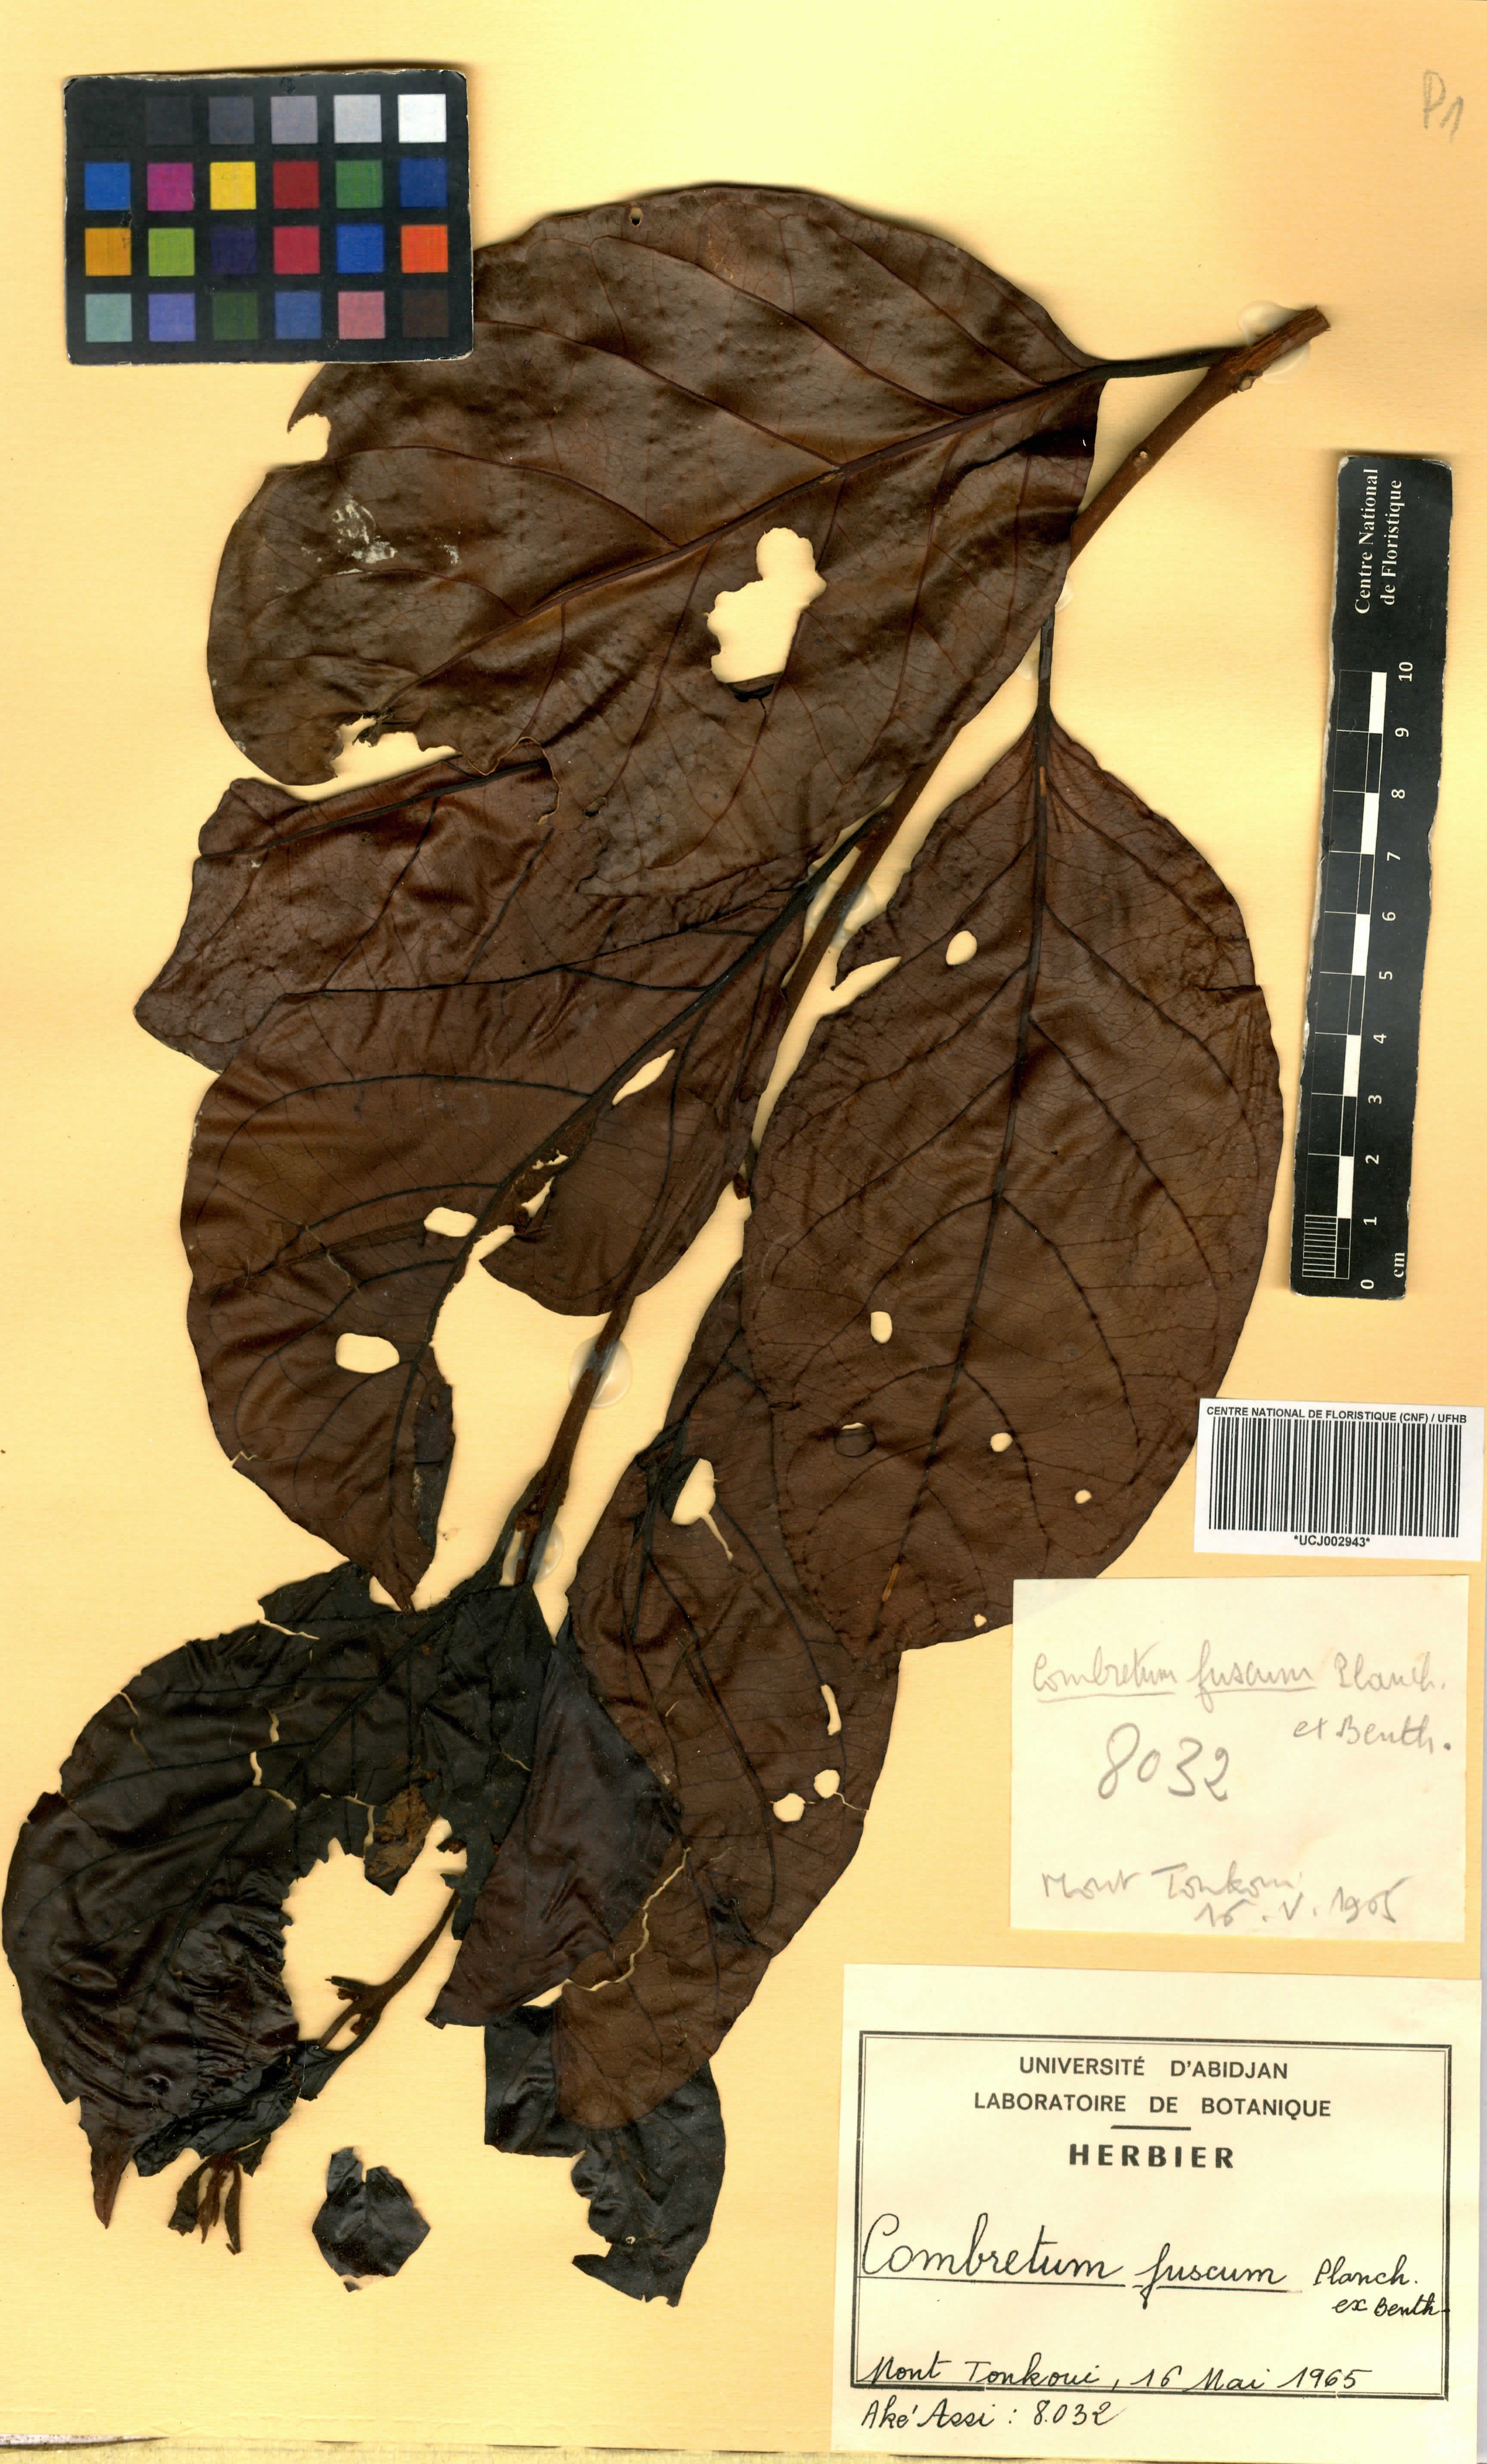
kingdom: Plantae
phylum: Tracheophyta
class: Magnoliopsida
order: Myrtales
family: Combretaceae
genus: Combretum
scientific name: Combretum fuscum
